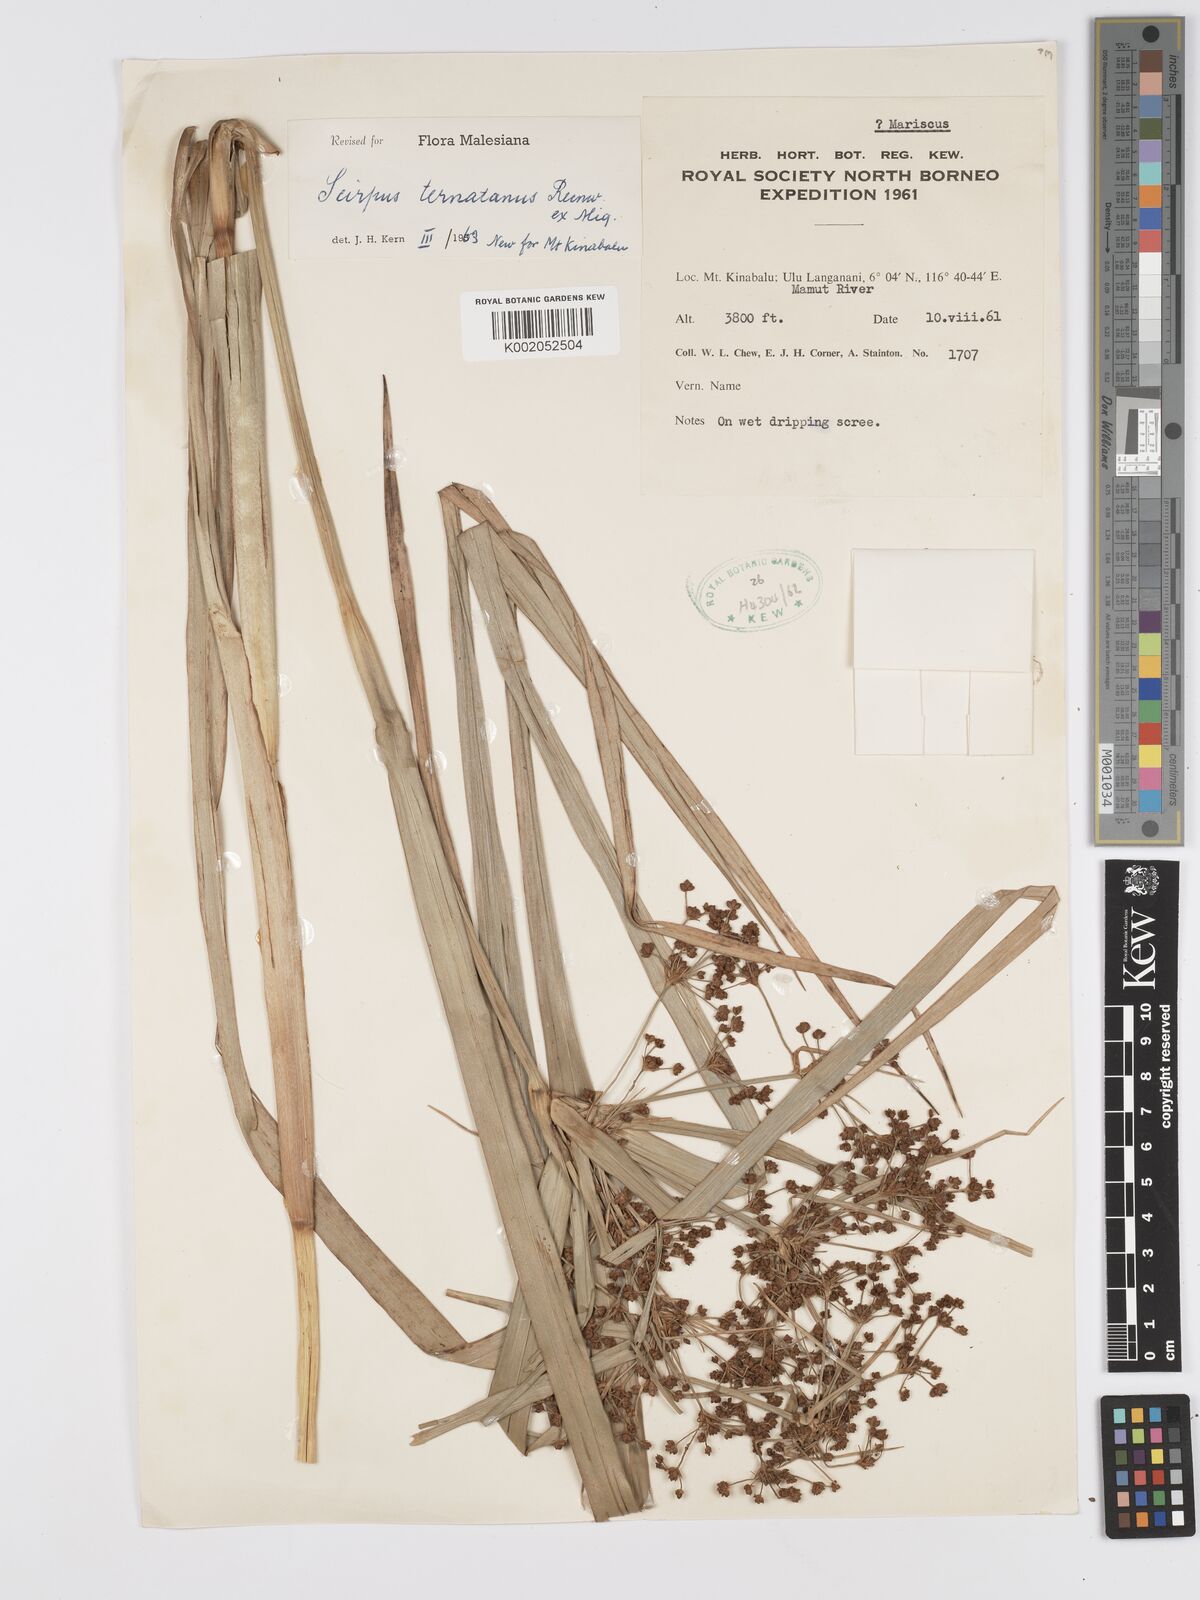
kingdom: Plantae
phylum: Tracheophyta
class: Liliopsida
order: Poales
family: Cyperaceae
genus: Scirpus
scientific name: Scirpus ternatanus
